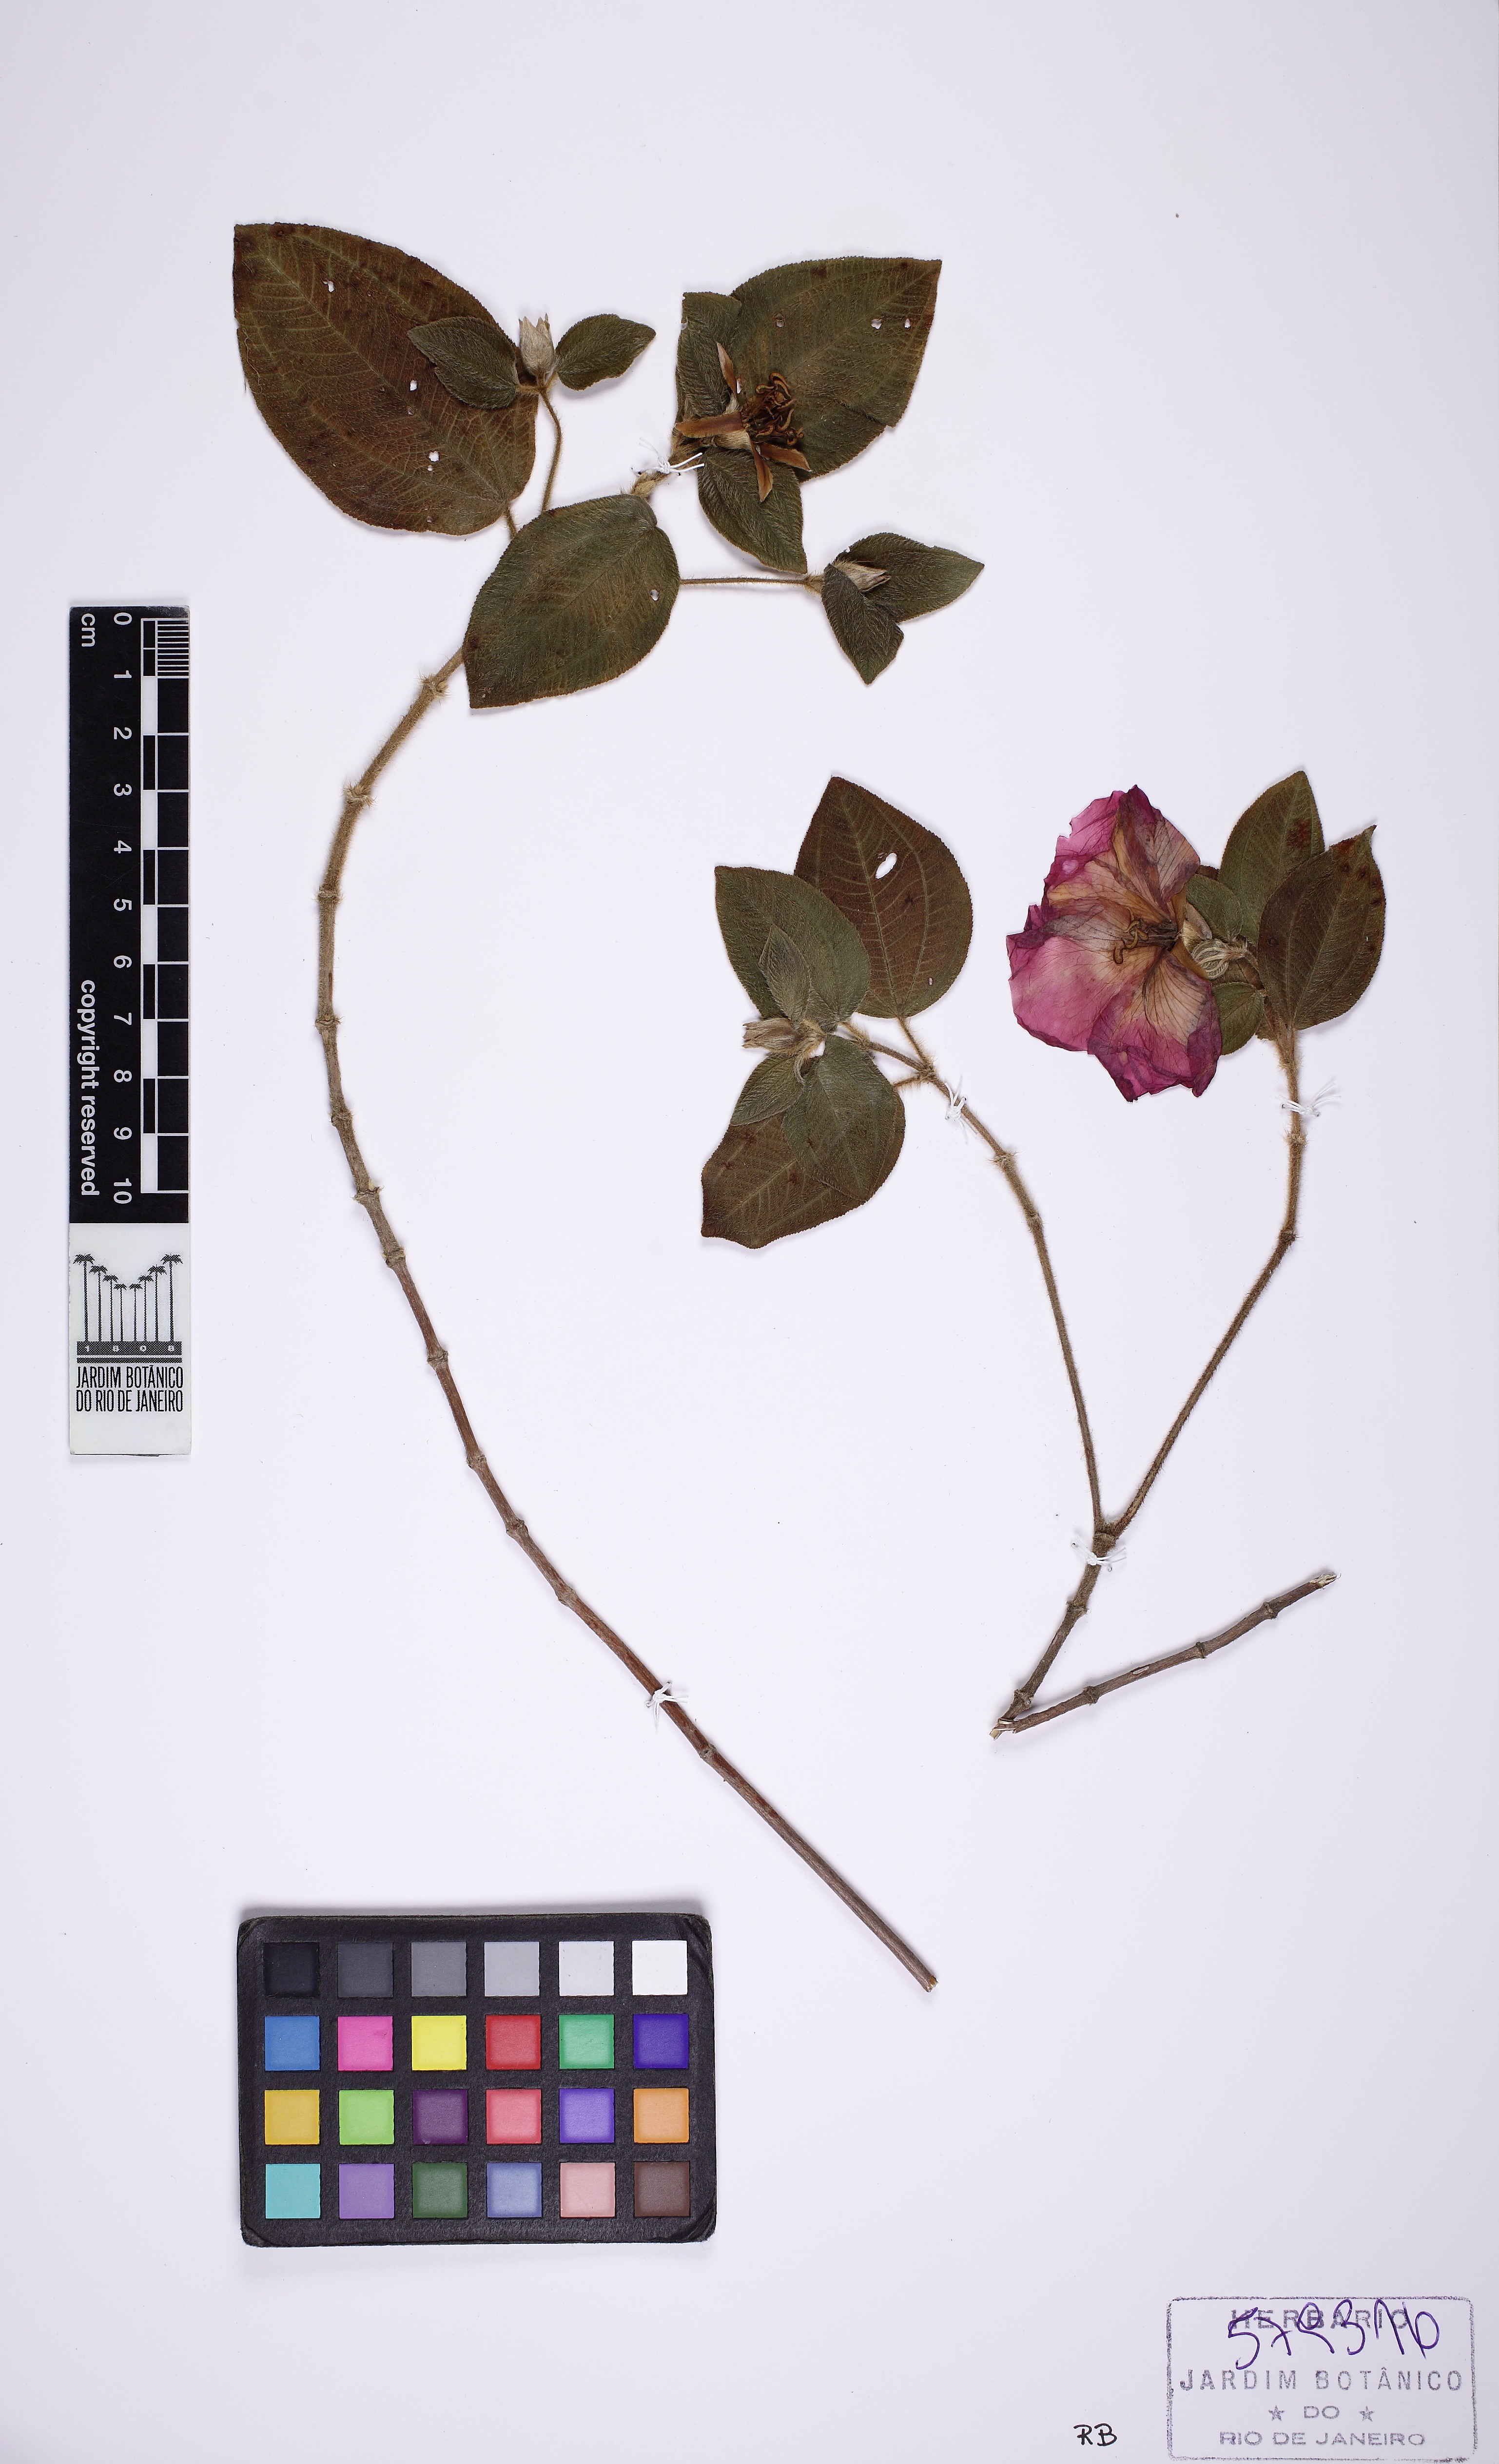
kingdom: Plantae
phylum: Tracheophyta
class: Magnoliopsida
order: Myrtales
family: Melastomataceae
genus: Pleroma
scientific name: Pleroma thereminianum
